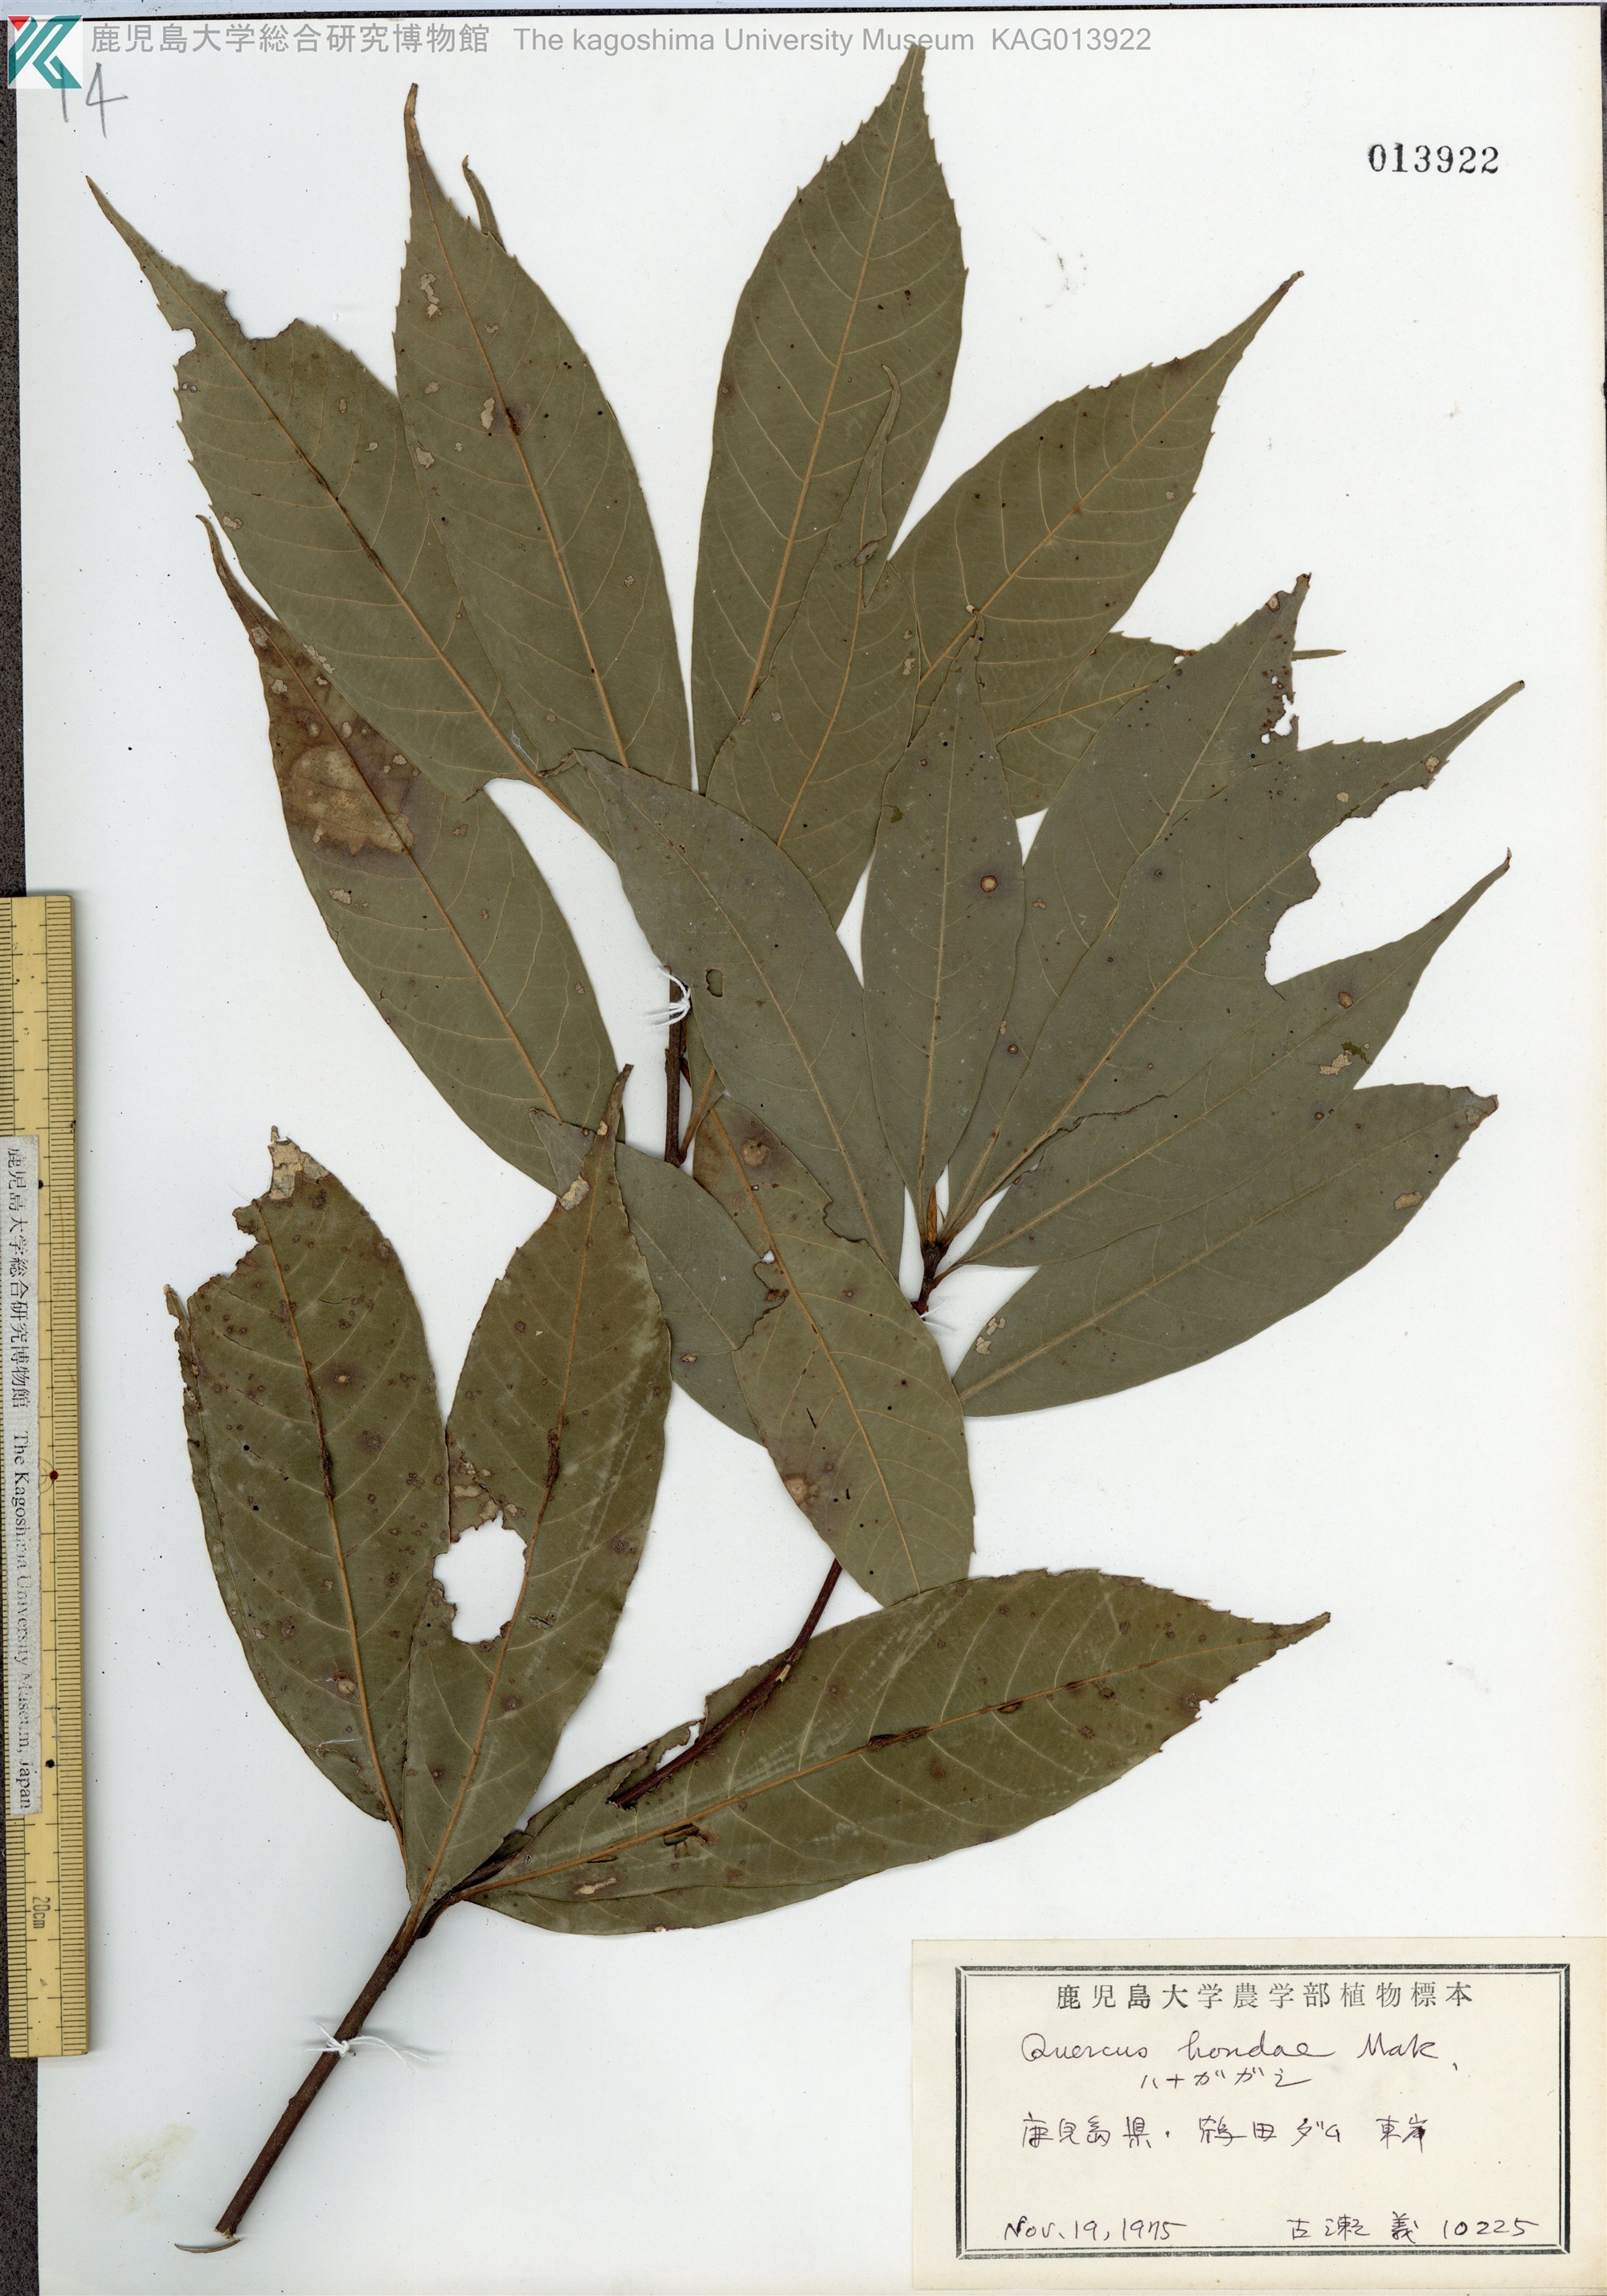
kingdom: Plantae
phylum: Tracheophyta
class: Magnoliopsida
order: Fagales
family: Fagaceae
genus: Quercus
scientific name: Quercus hondae
